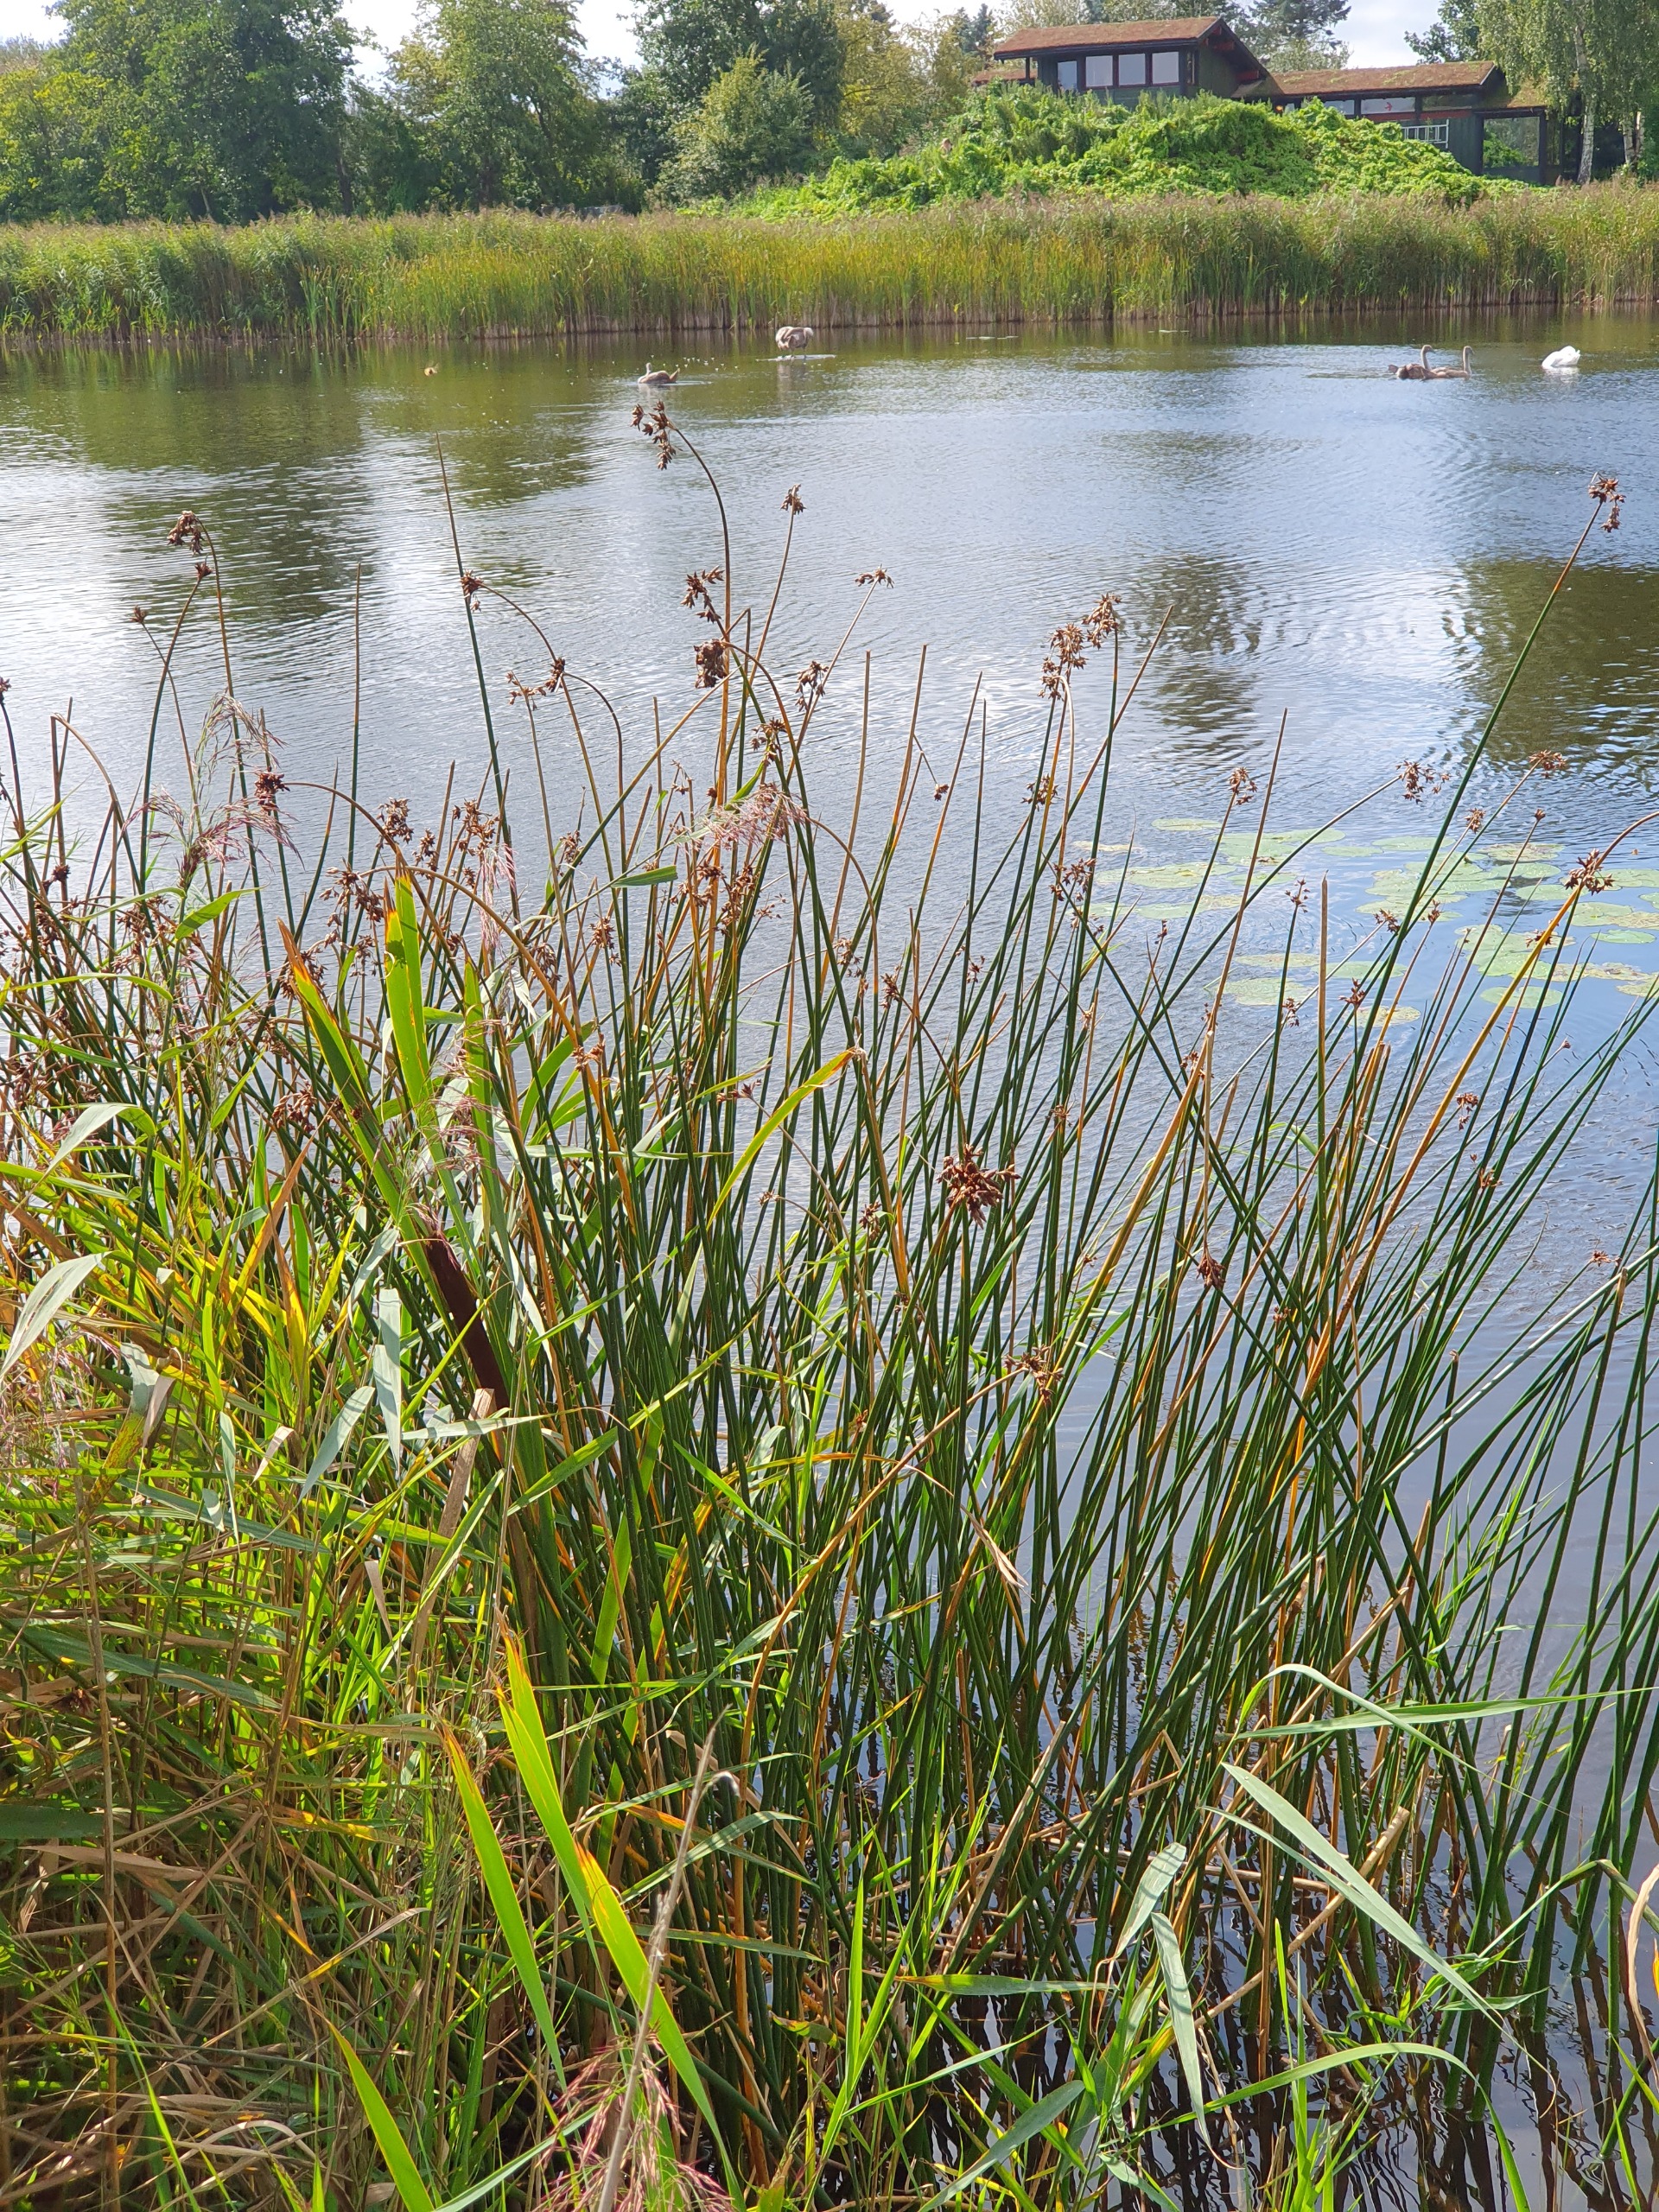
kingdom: Plantae
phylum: Tracheophyta
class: Liliopsida
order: Poales
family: Cyperaceae
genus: Schoenoplectus
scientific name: Schoenoplectus lacustris
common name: Sø-kogleaks
